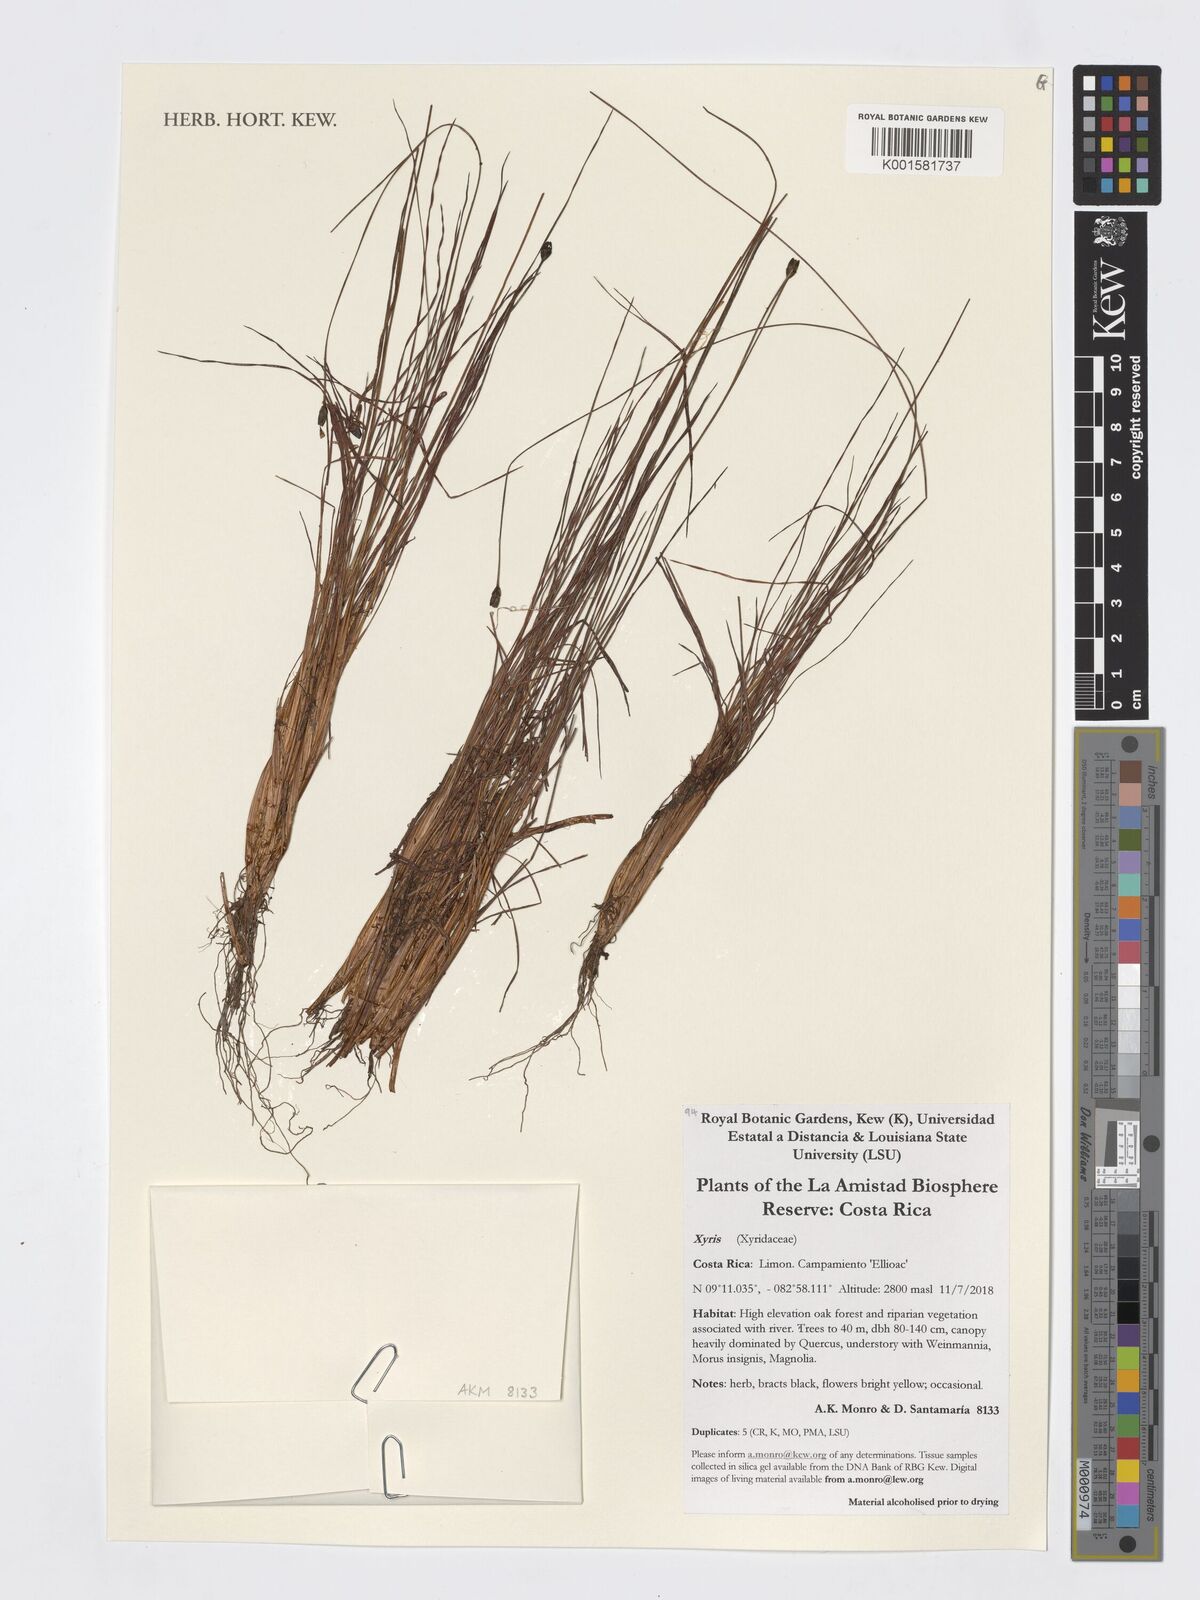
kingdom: Plantae
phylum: Tracheophyta
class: Liliopsida
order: Poales
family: Xyridaceae
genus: Xyris
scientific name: Xyris
